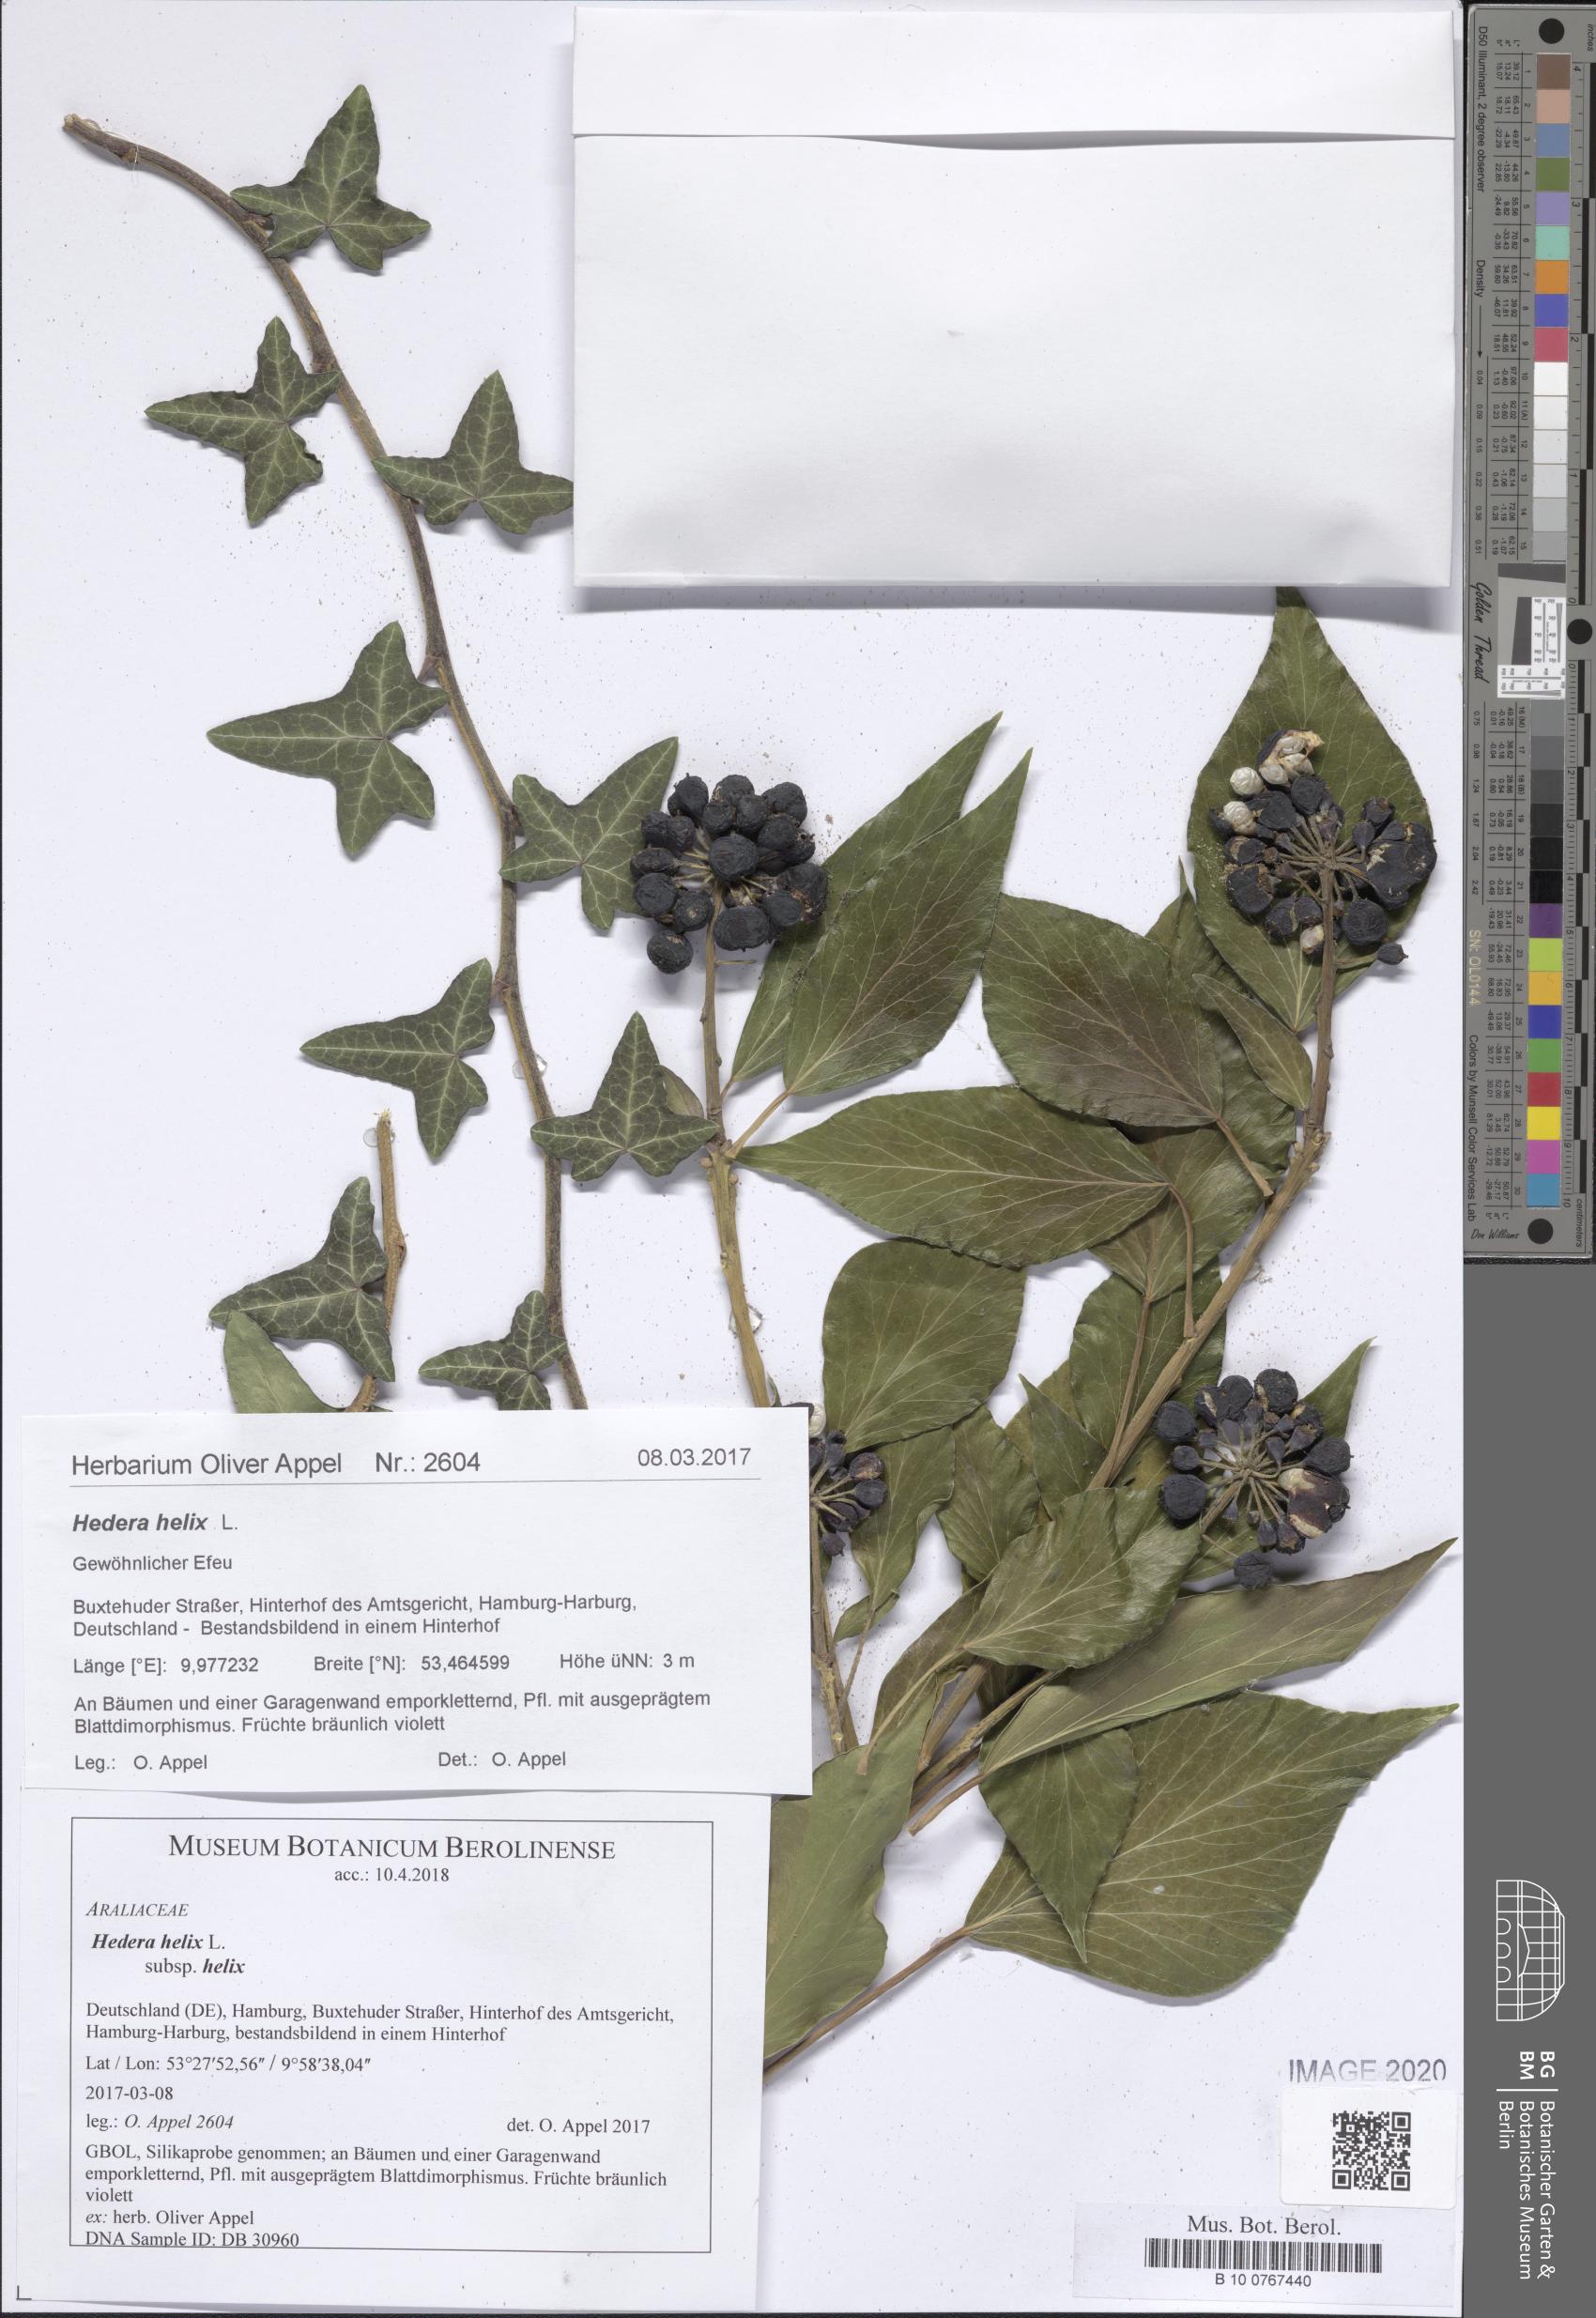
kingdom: Plantae
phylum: Tracheophyta
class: Magnoliopsida
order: Apiales
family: Araliaceae
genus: Hedera
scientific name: Hedera helix
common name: Ivy
